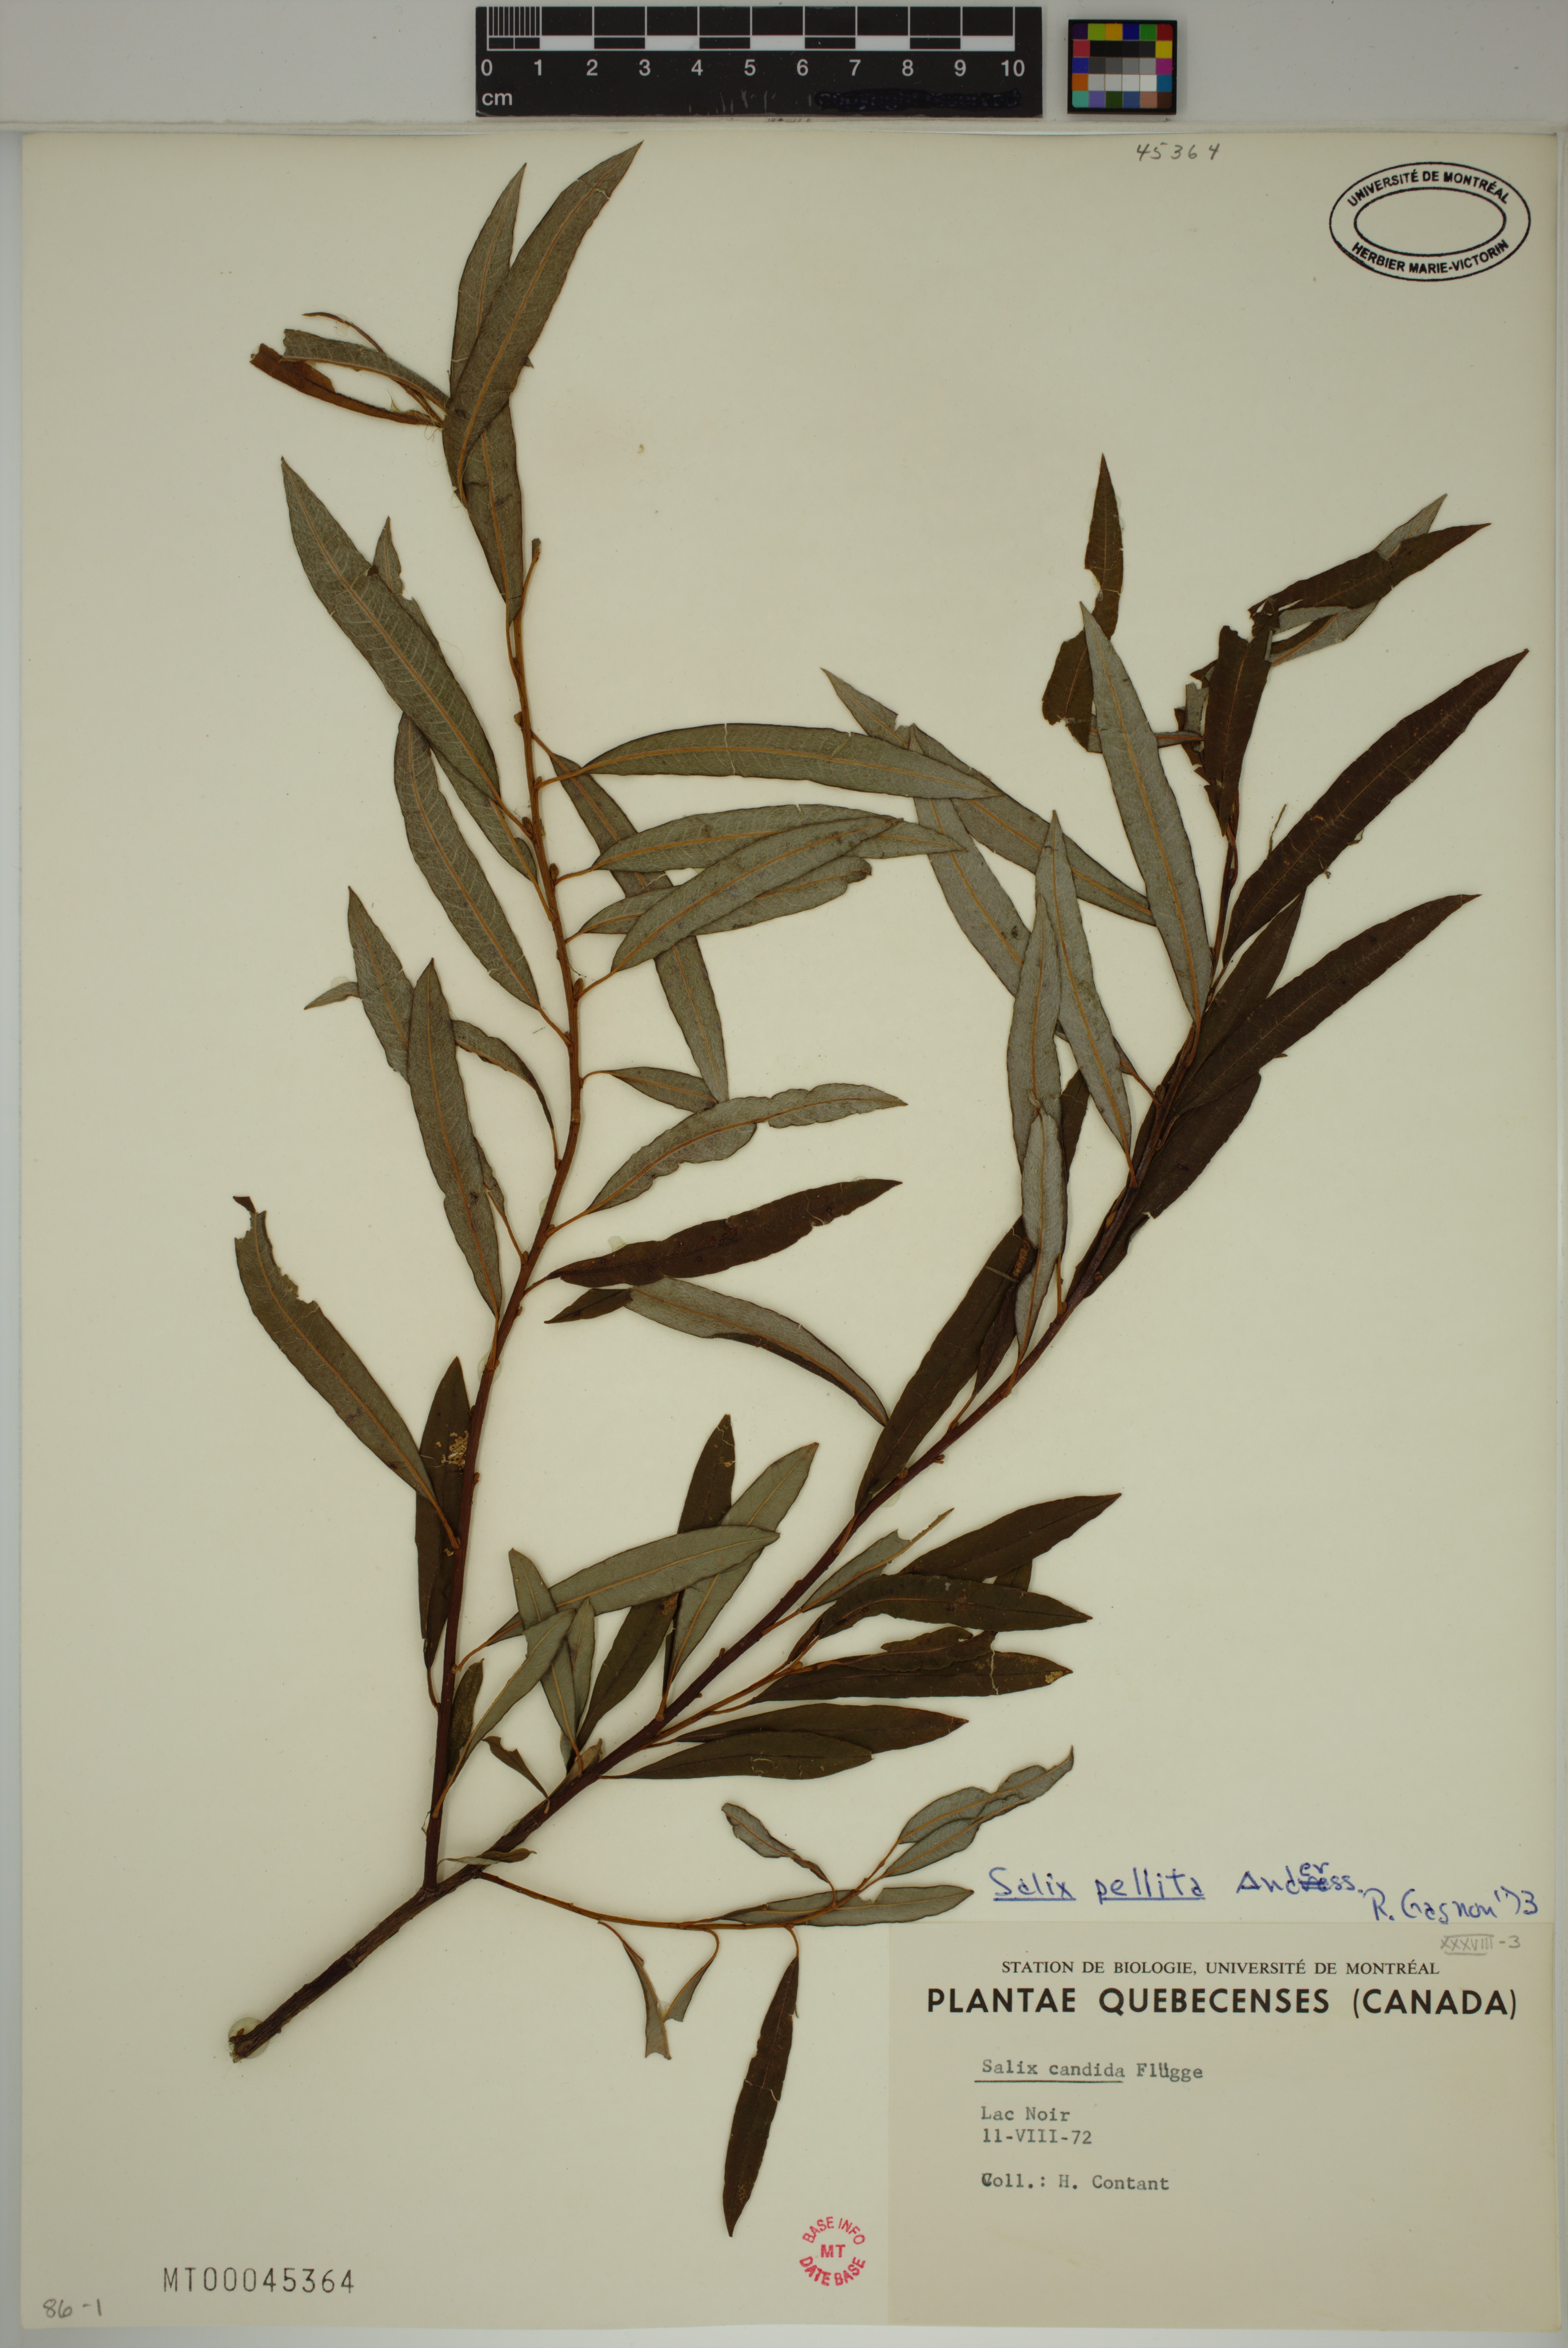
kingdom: Plantae
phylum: Tracheophyta
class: Magnoliopsida
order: Malpighiales
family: Salicaceae
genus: Salix
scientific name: Salix pellita
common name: Satiny willow
